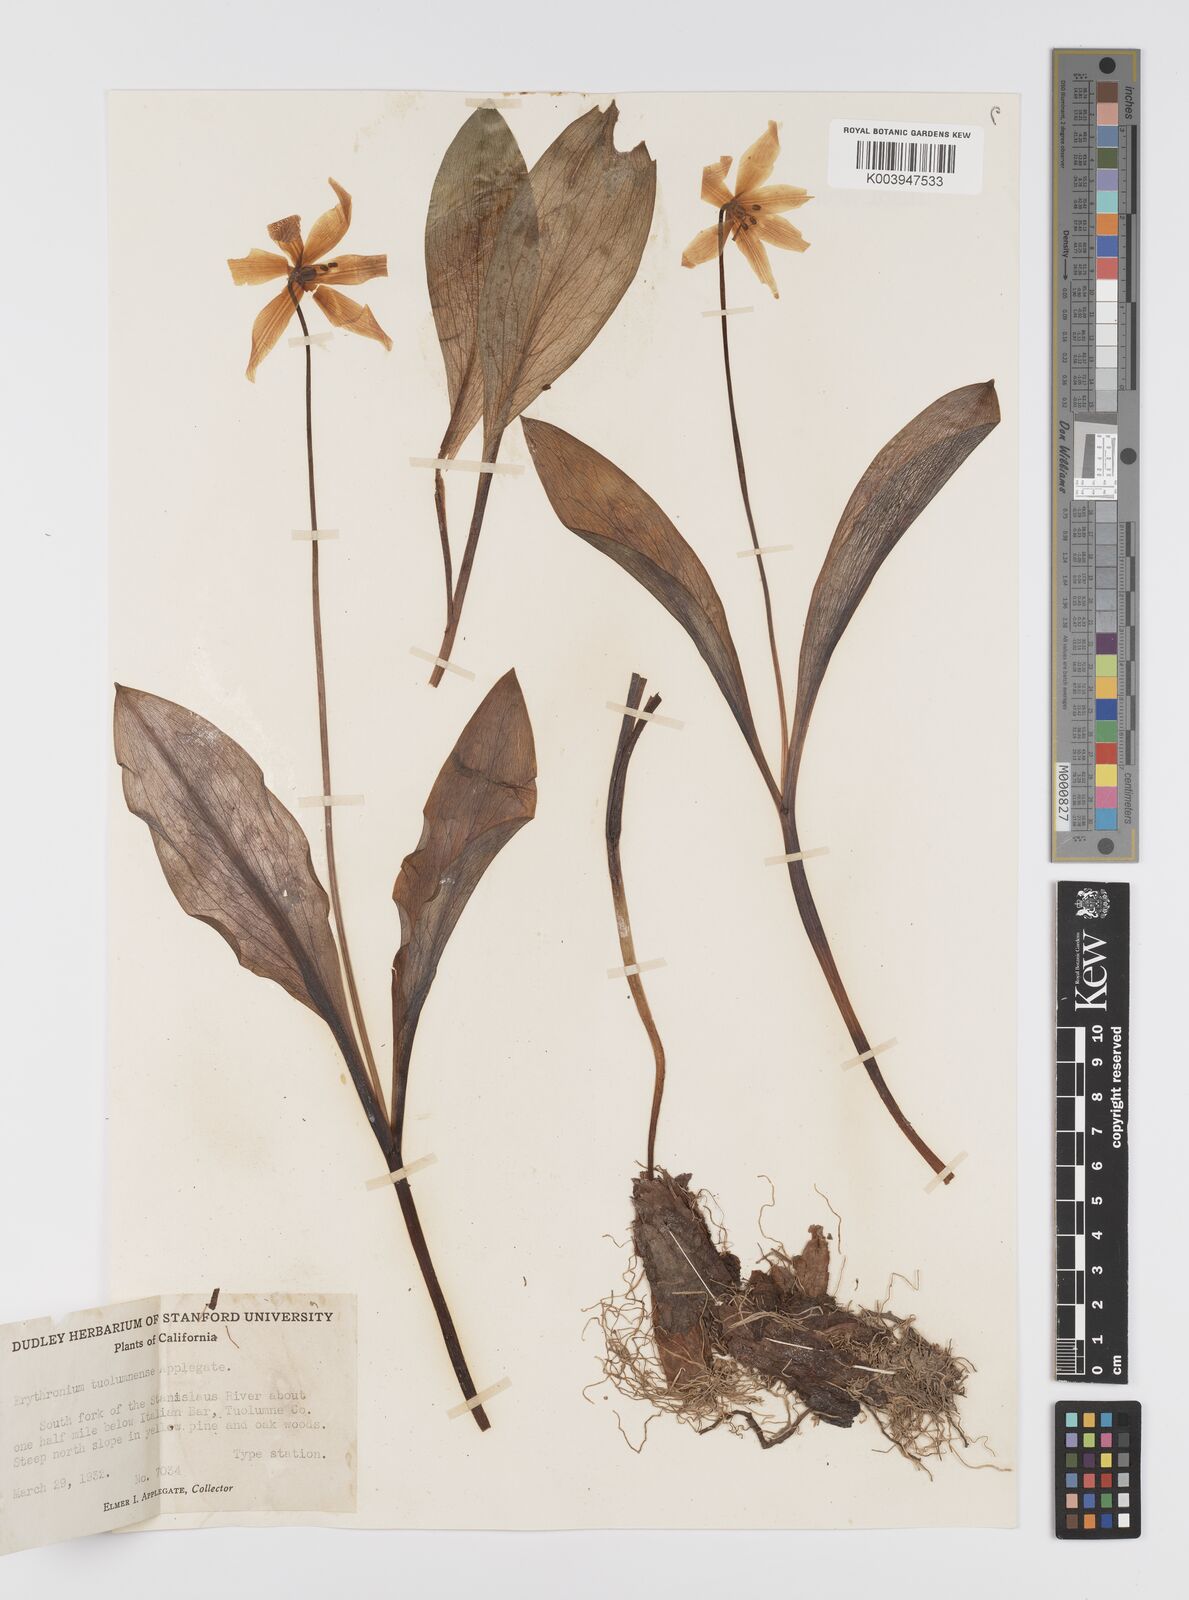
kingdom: Plantae
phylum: Tracheophyta
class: Liliopsida
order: Liliales
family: Liliaceae
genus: Erythronium
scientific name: Erythronium tuolumnense
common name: Tuolumne fawn-lily
